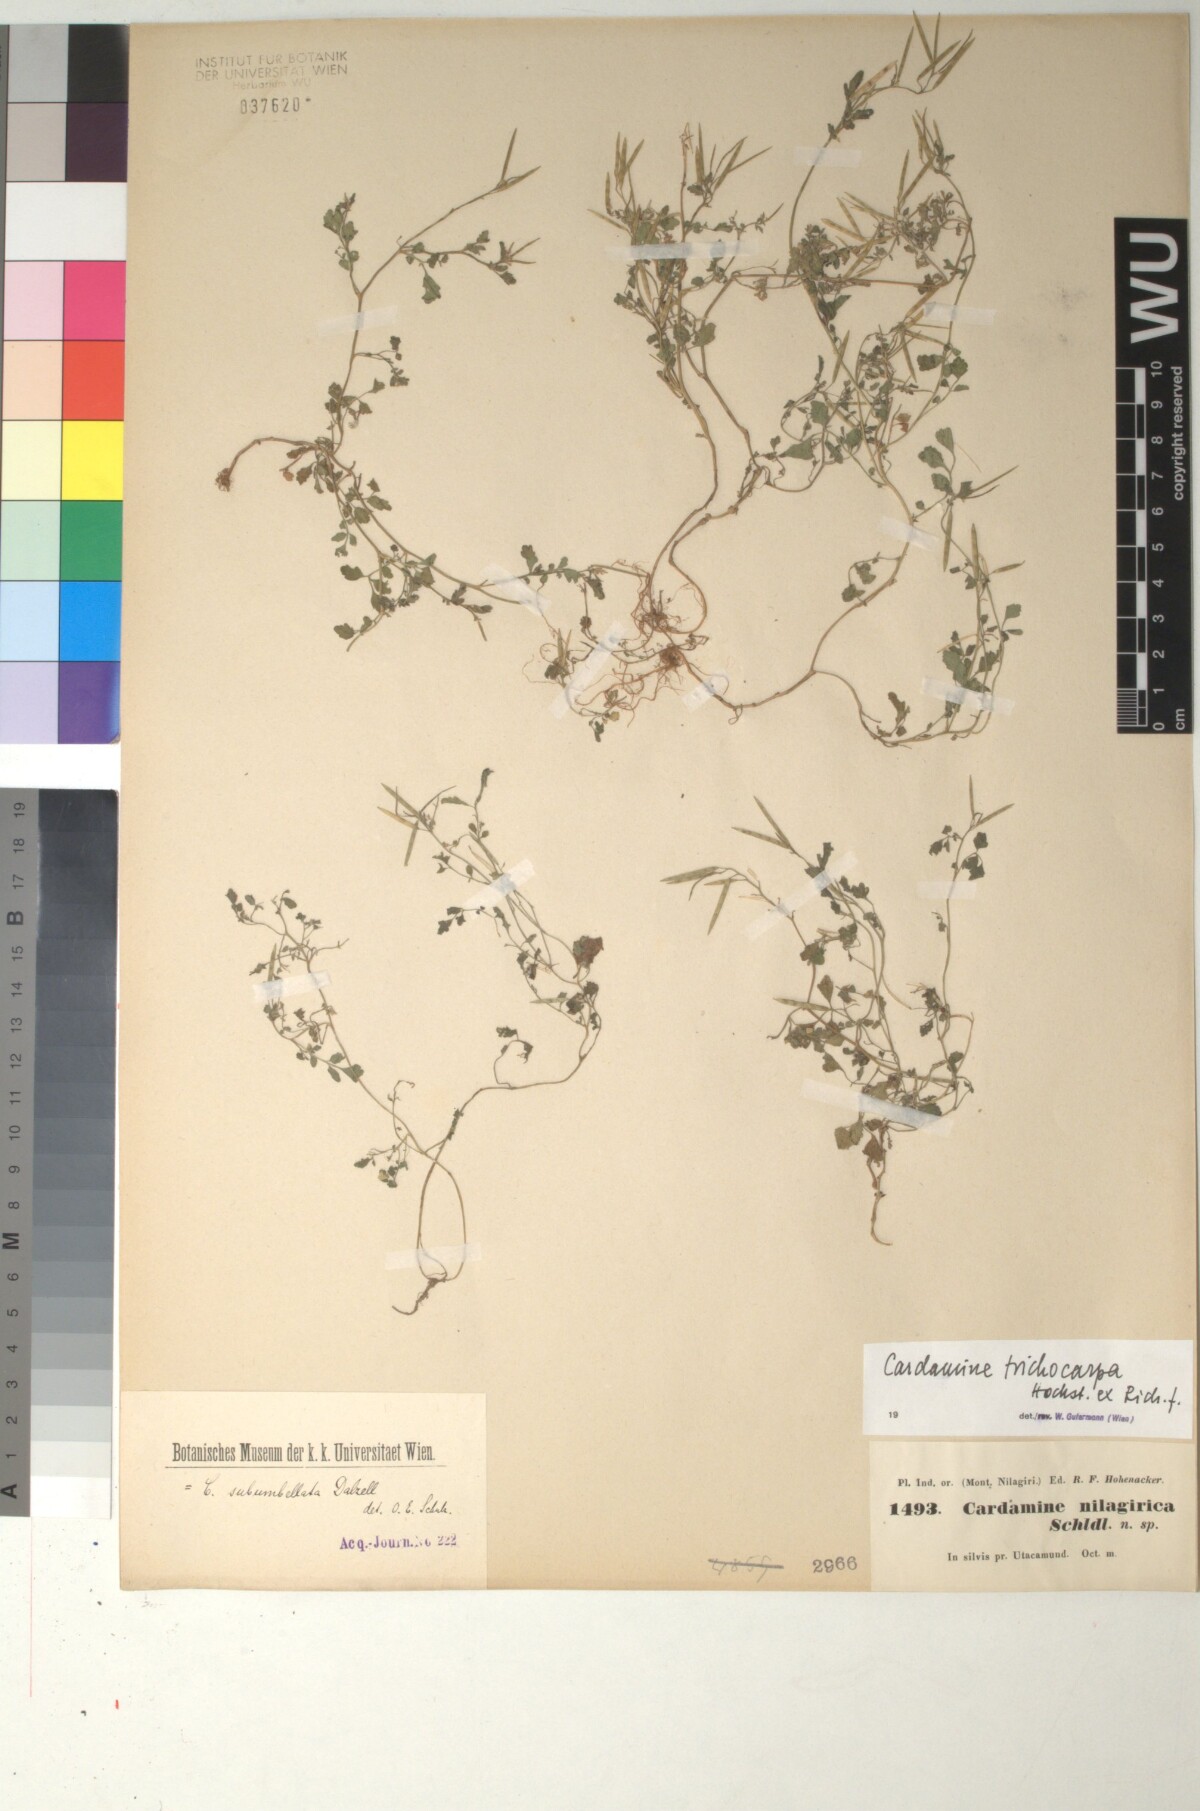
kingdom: Plantae
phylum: Tracheophyta
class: Magnoliopsida
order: Brassicales
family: Brassicaceae
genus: Cardamine
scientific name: Cardamine trichocarpa
